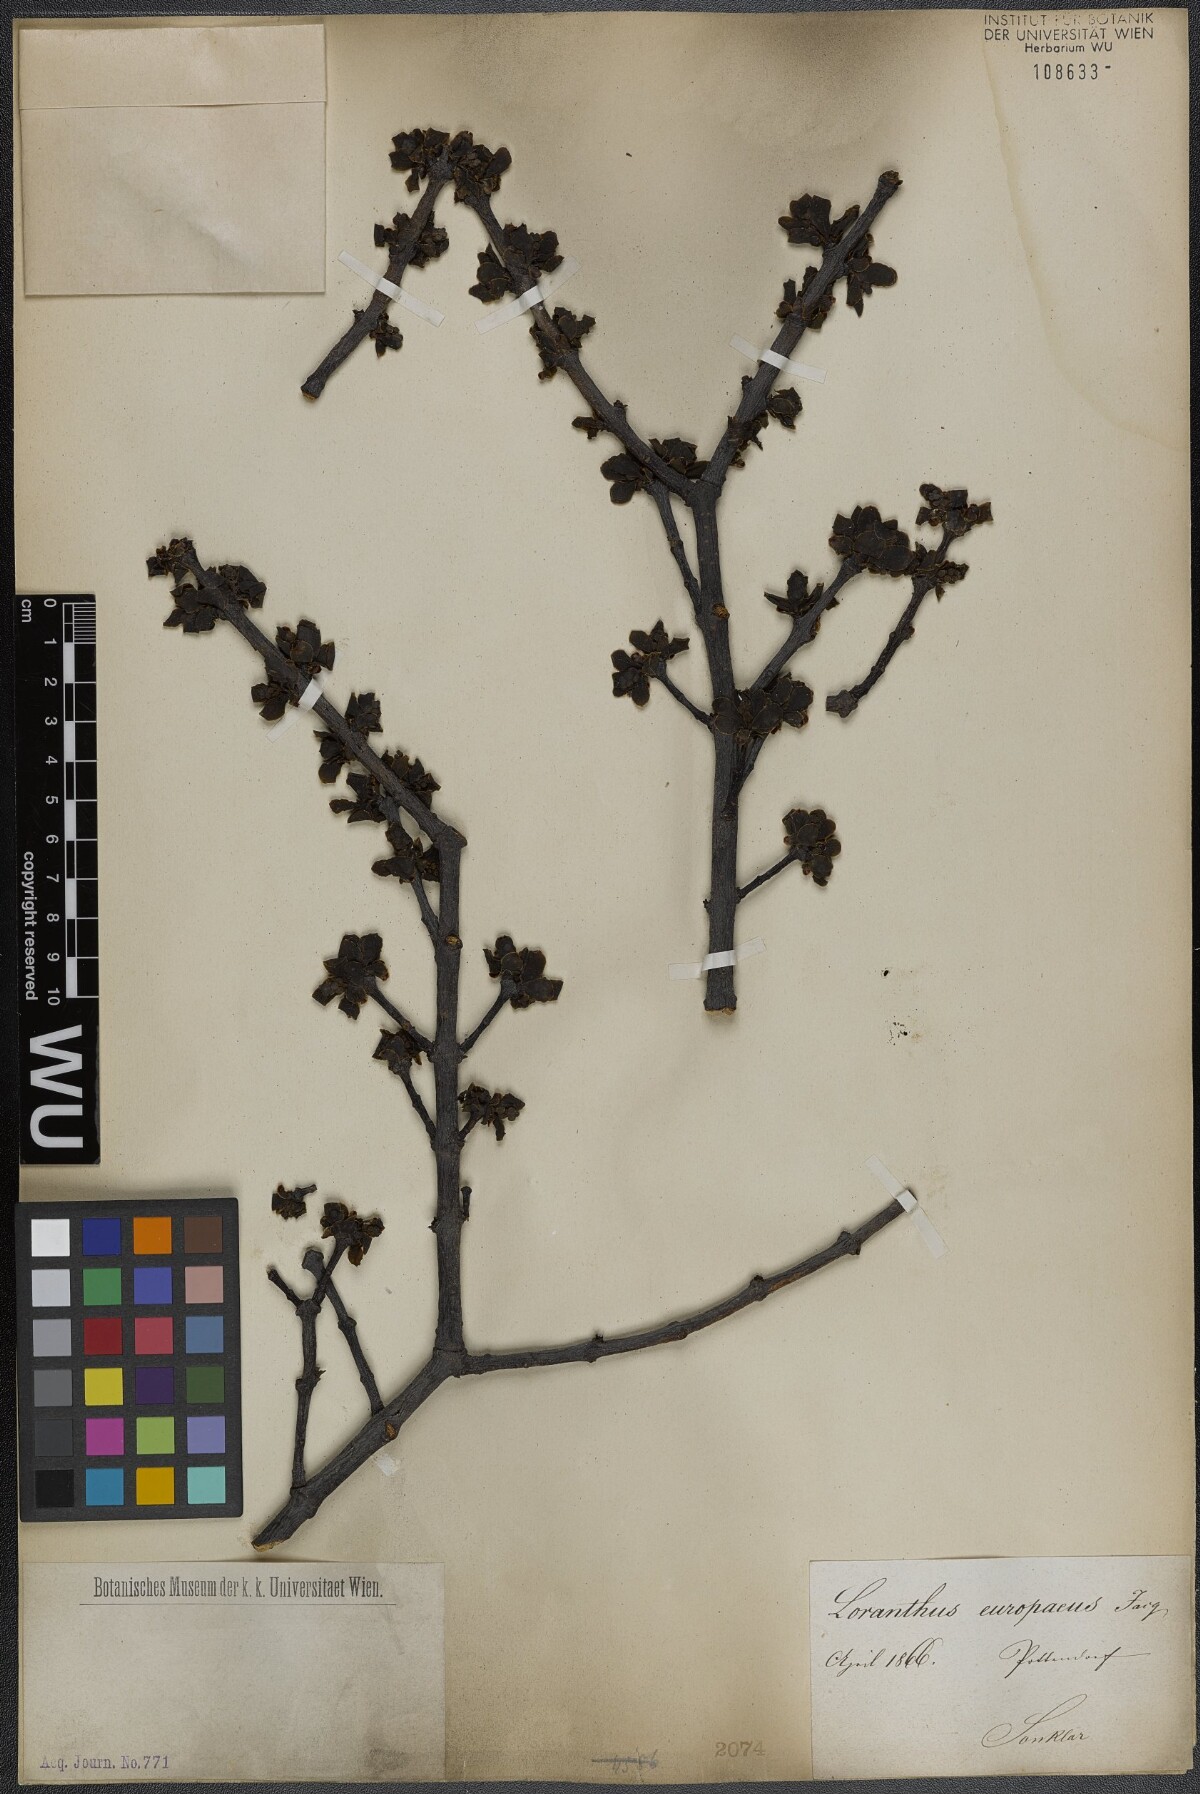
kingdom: Plantae
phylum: Tracheophyta
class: Magnoliopsida
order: Santalales
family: Loranthaceae
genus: Loranthus
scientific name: Loranthus europaeus
